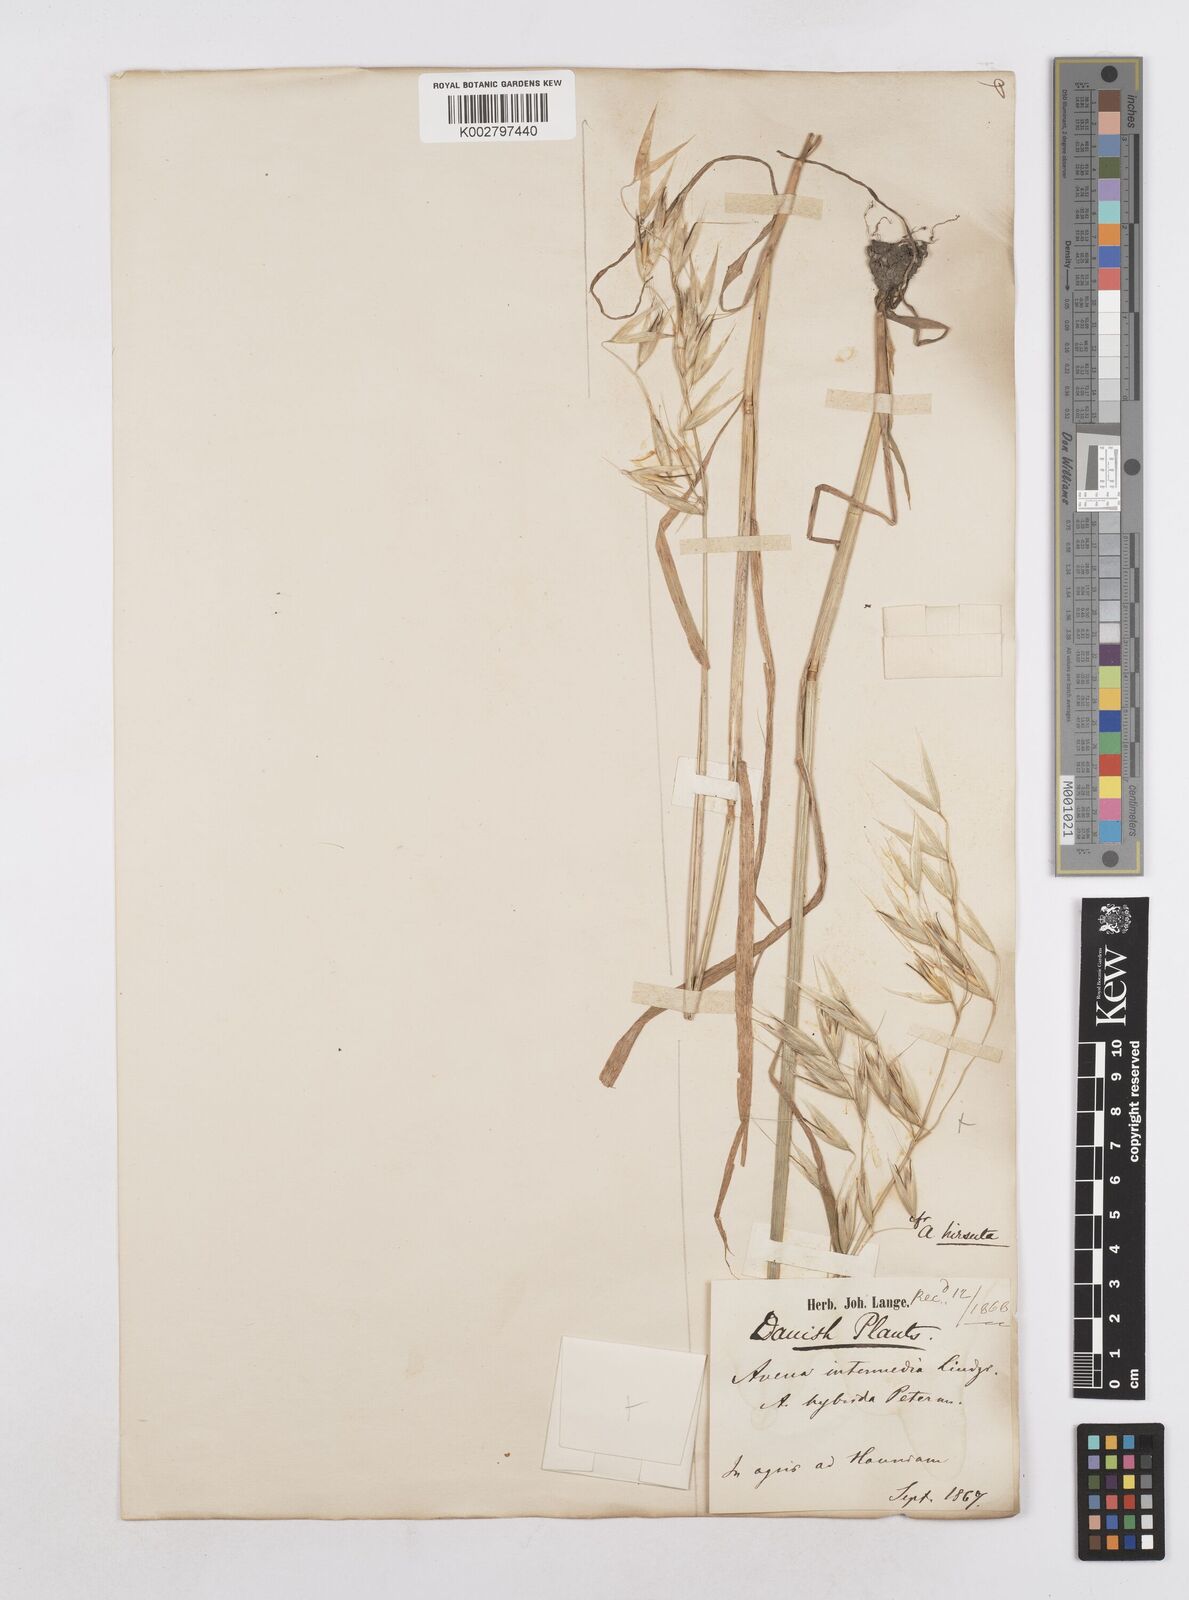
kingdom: Plantae
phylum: Tracheophyta
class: Liliopsida
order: Poales
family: Poaceae
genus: Avena
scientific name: Avena fatua
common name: Wild oat
